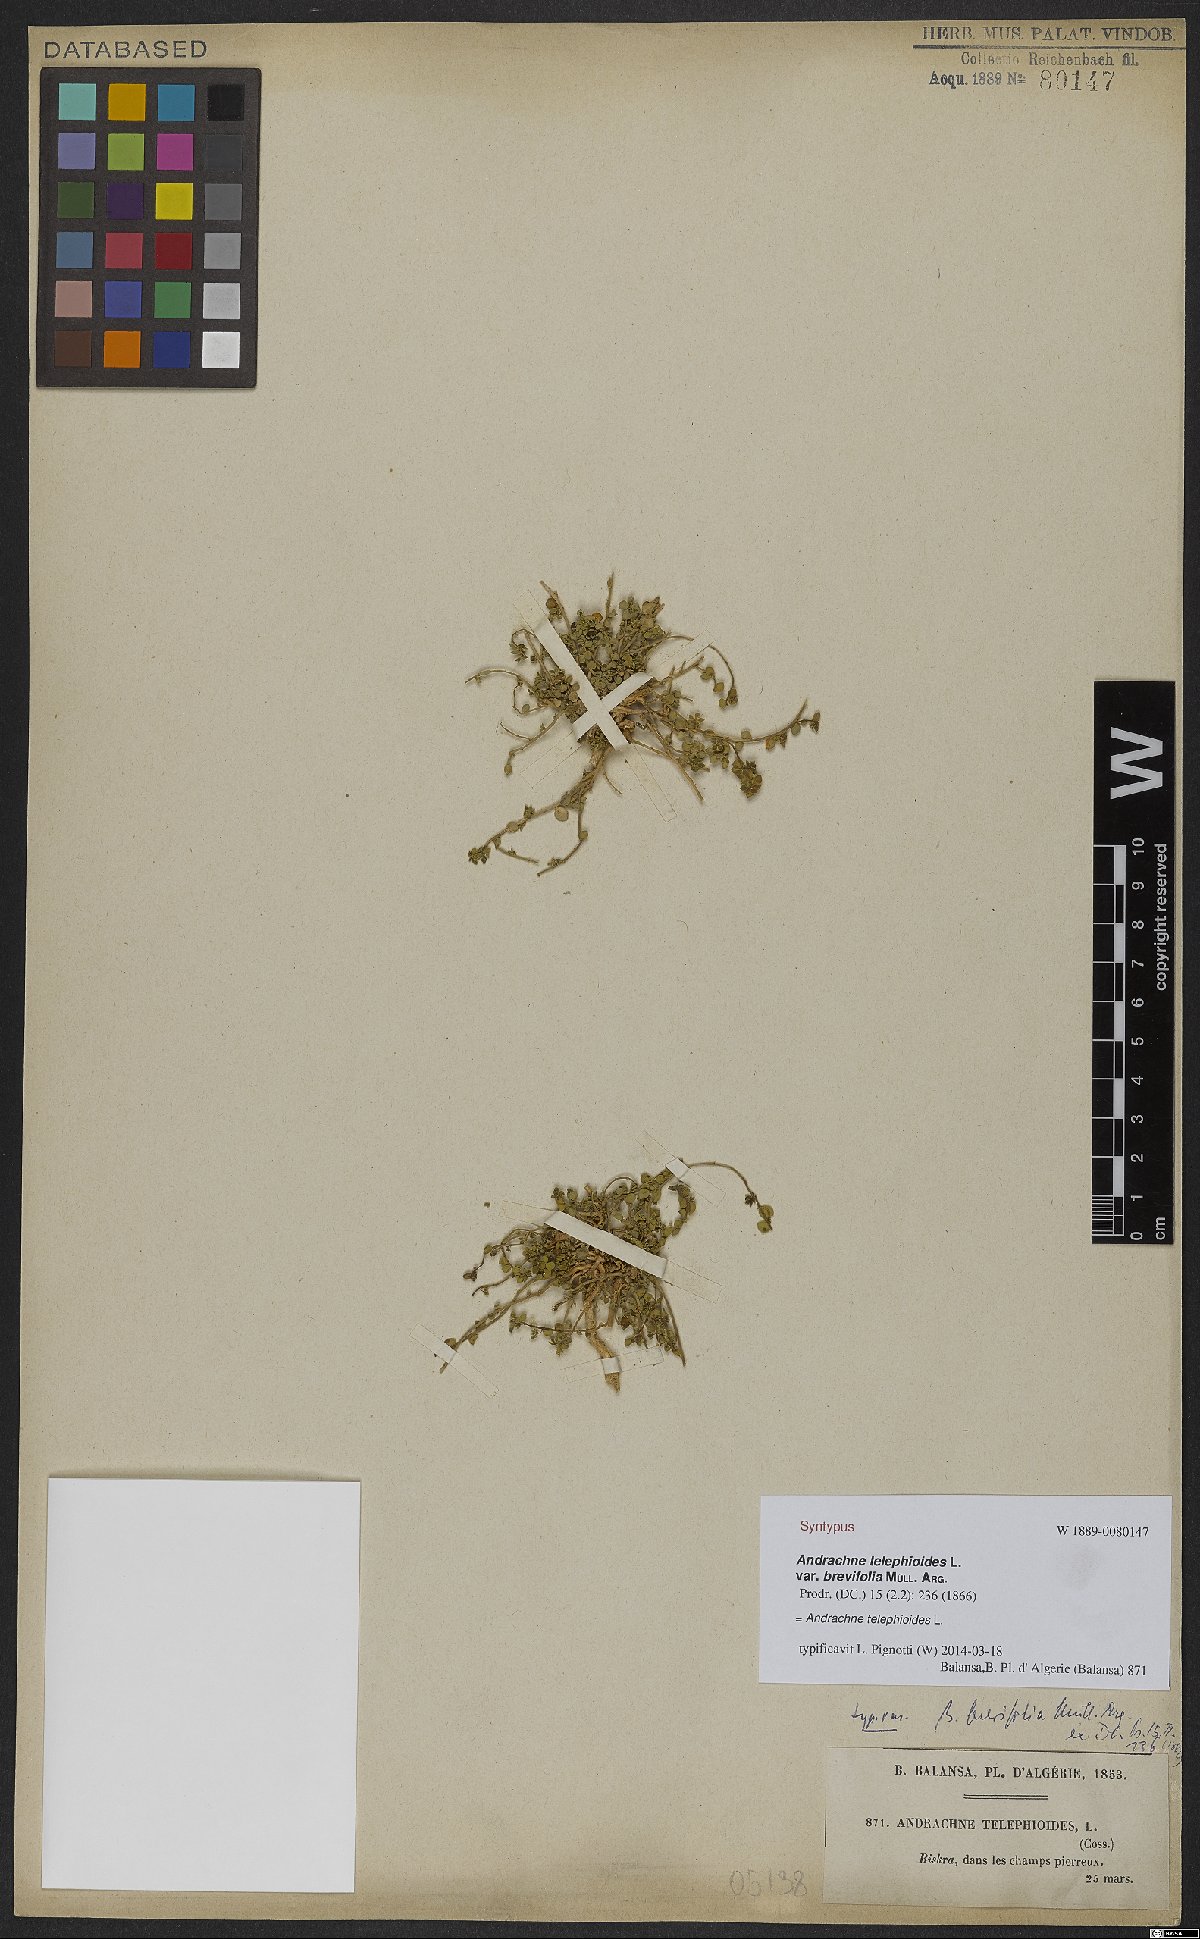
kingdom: Plantae
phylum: Tracheophyta
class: Magnoliopsida
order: Malpighiales
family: Phyllanthaceae
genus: Andrachne
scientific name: Andrachne telephioides
